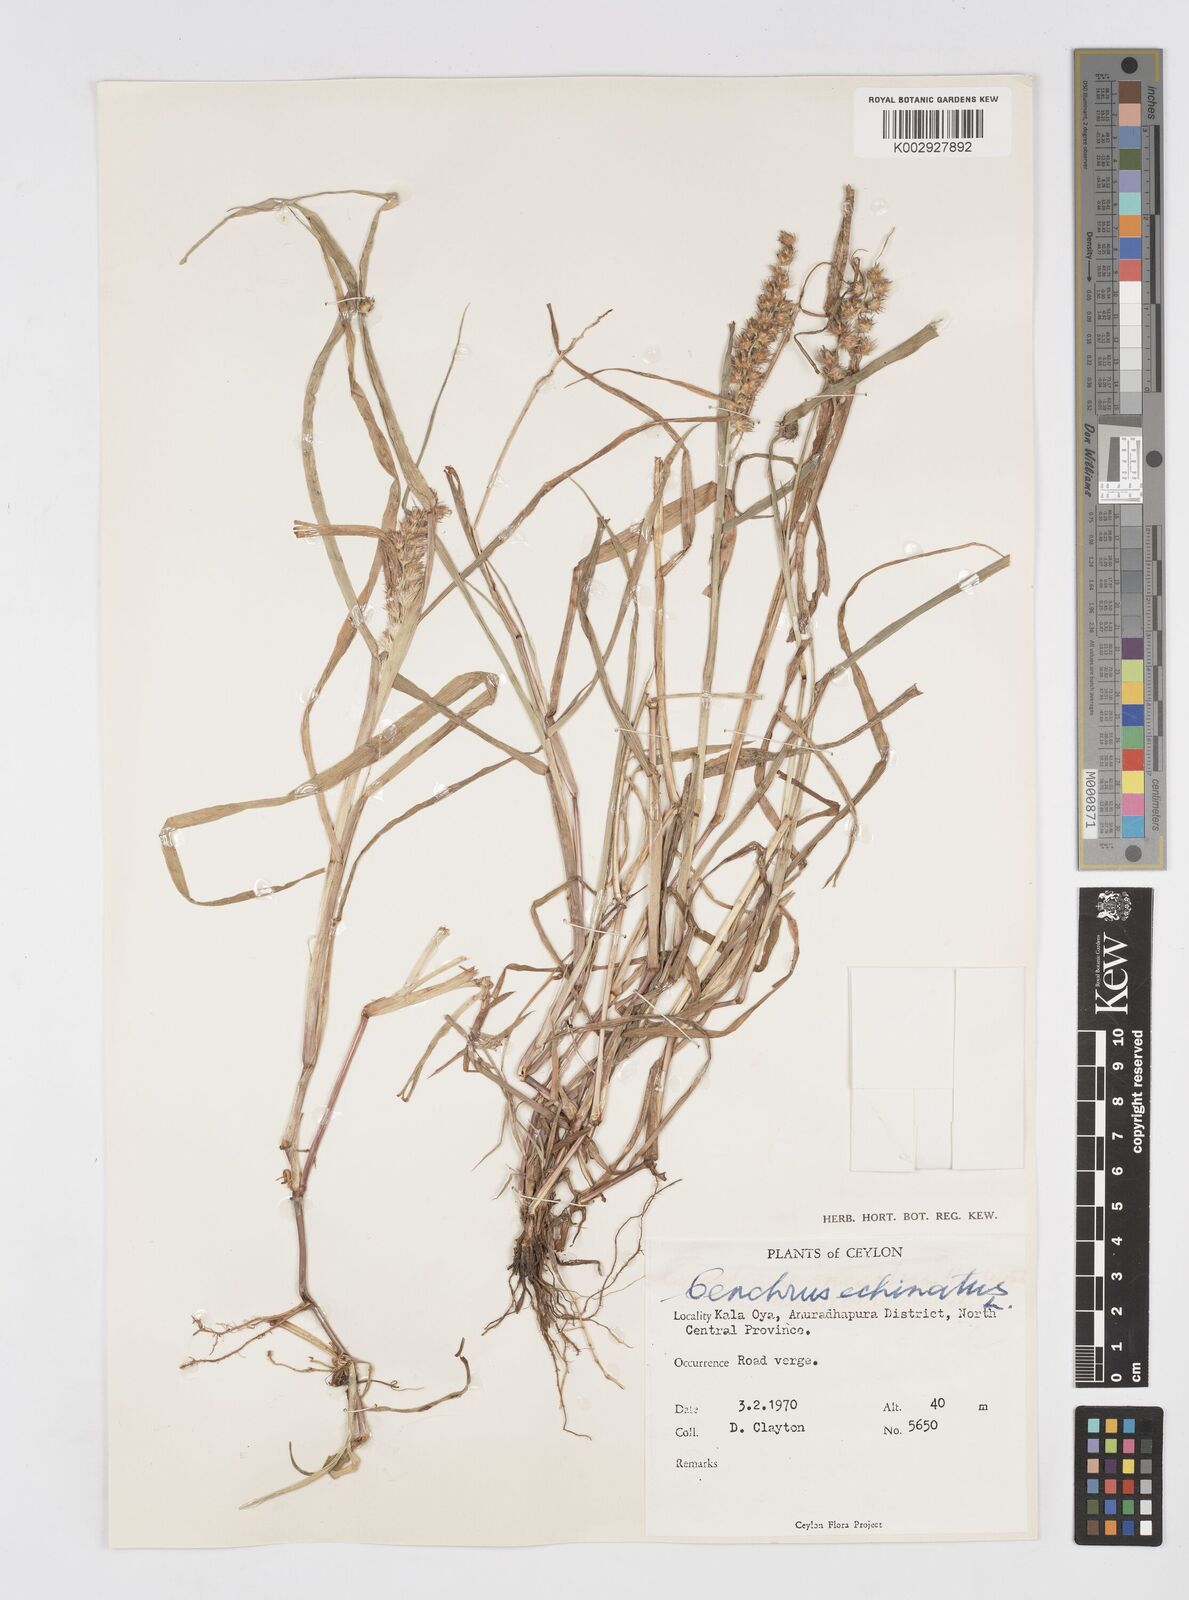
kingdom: Plantae
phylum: Tracheophyta
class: Liliopsida
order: Poales
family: Poaceae
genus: Cenchrus
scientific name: Cenchrus echinatus
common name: Southern sandbur
